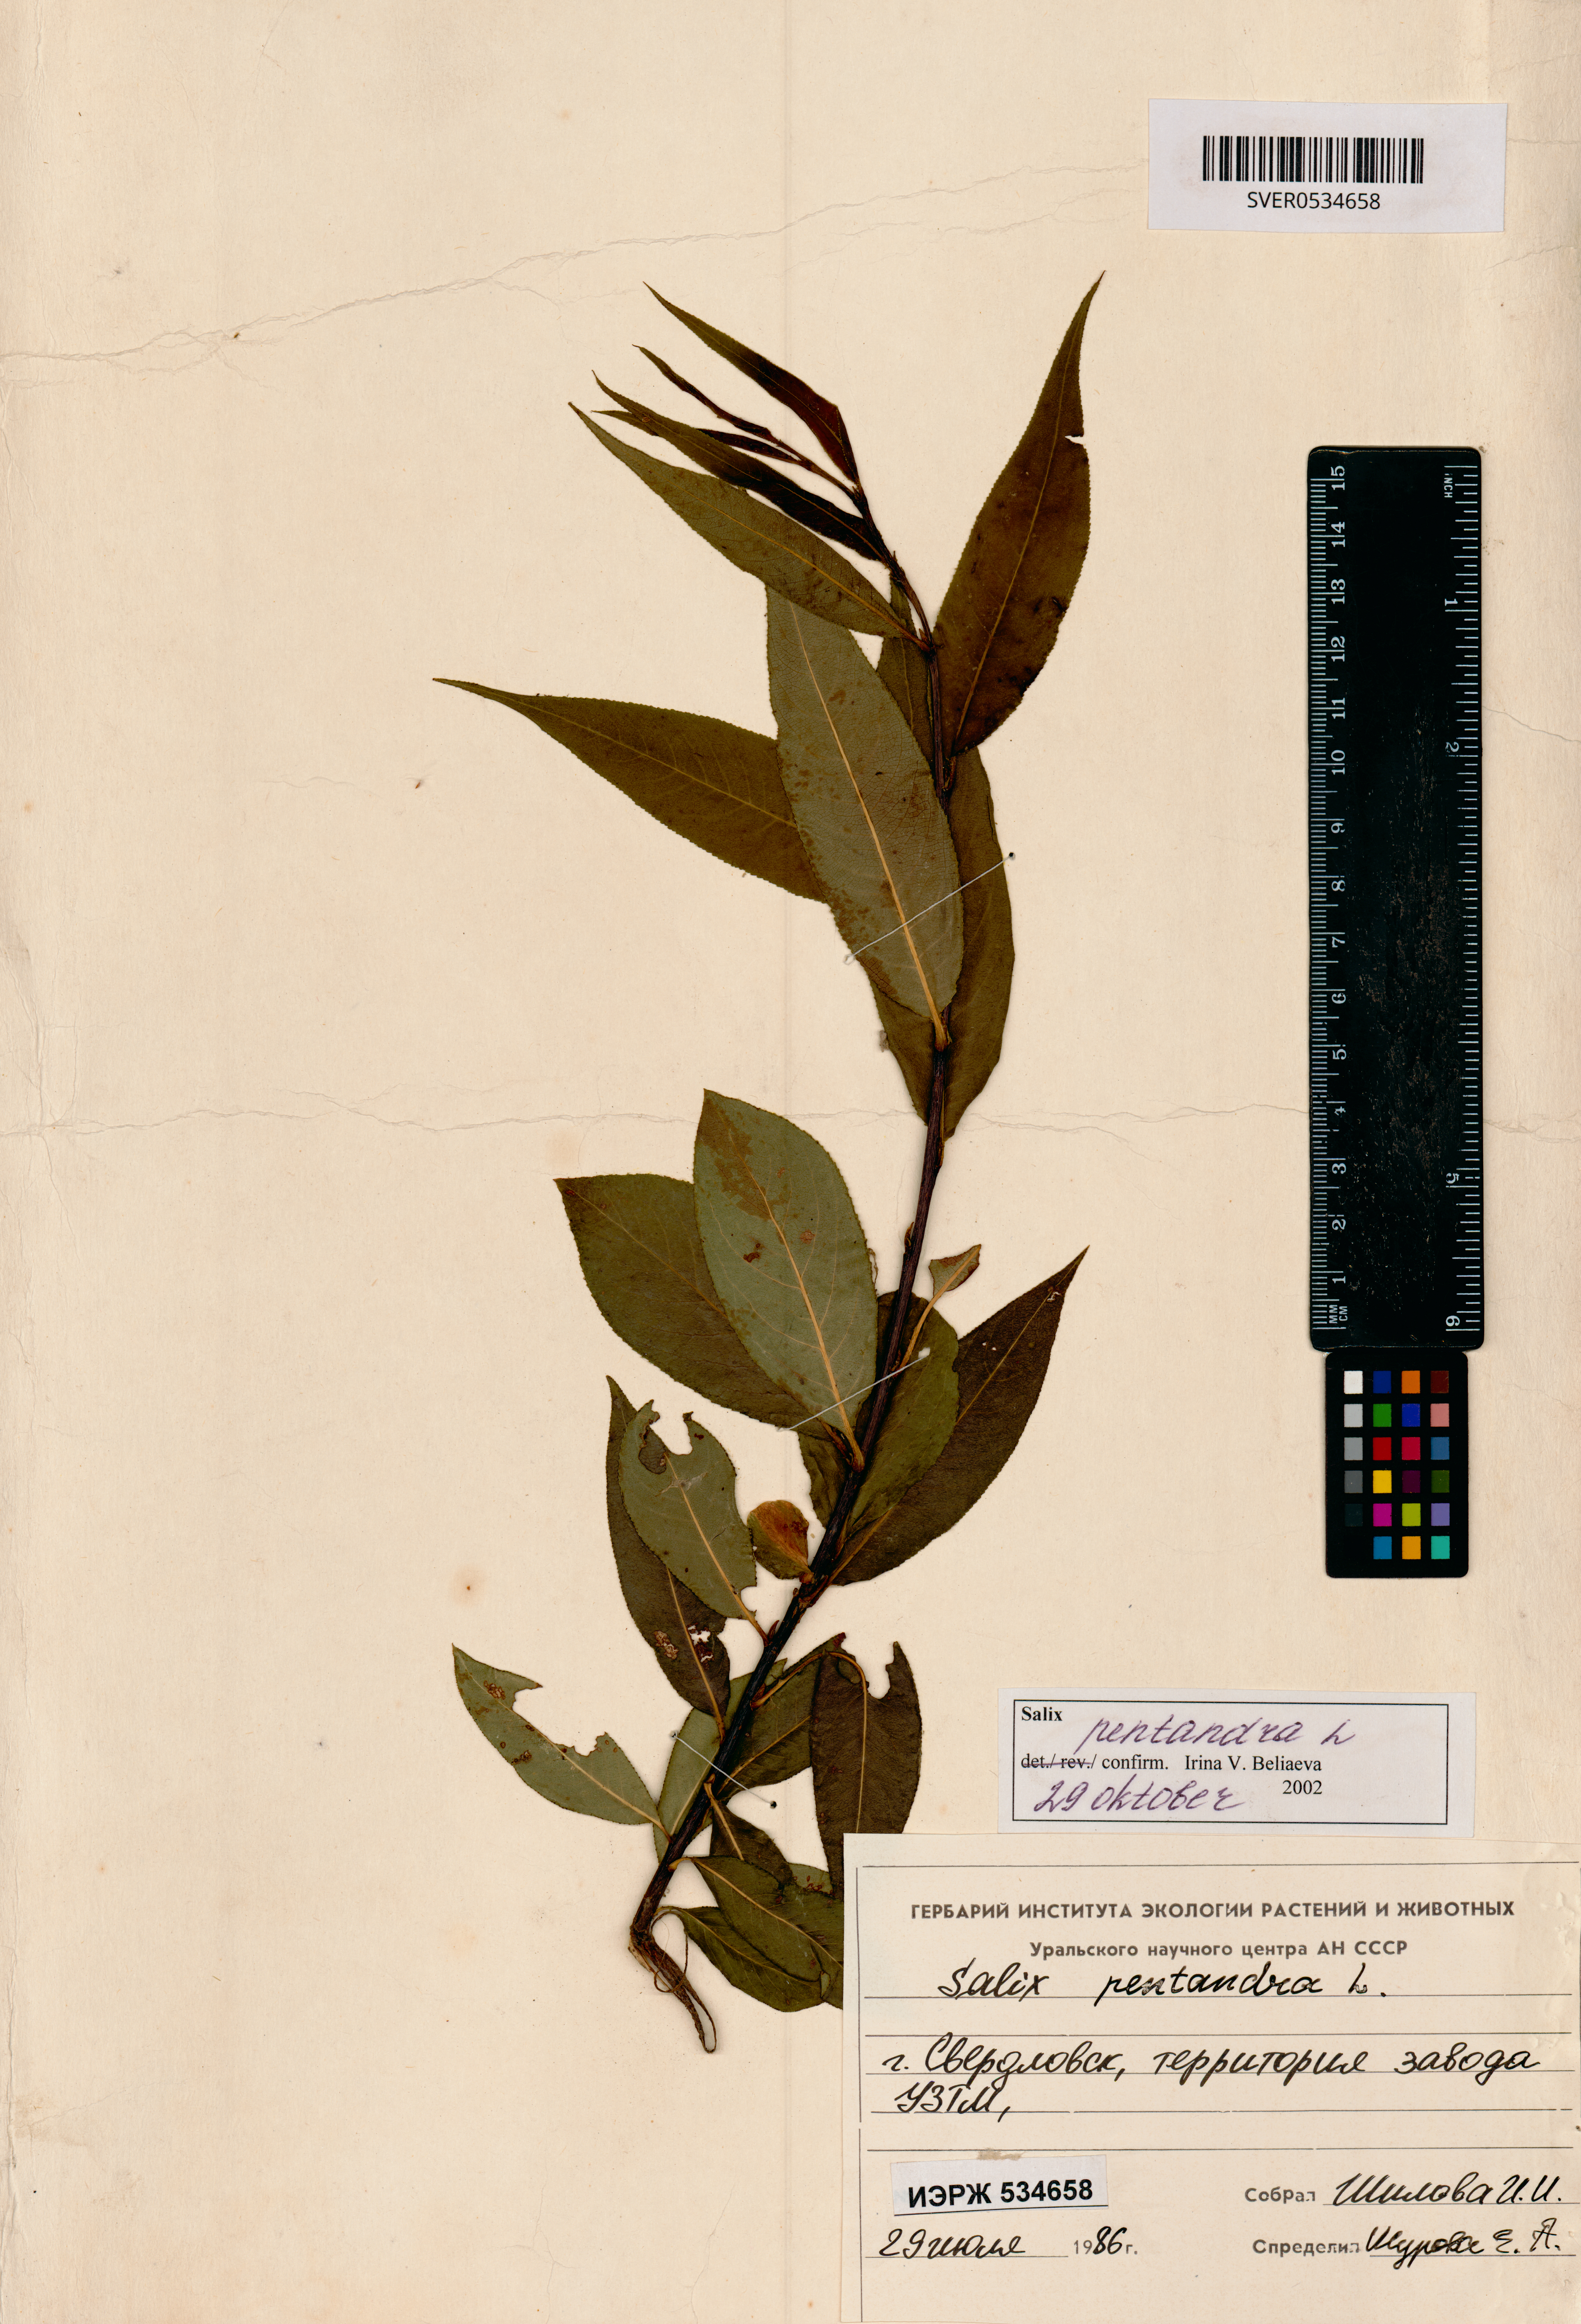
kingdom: Plantae
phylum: Tracheophyta
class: Magnoliopsida
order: Malpighiales
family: Salicaceae
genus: Salix
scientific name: Salix pentandra
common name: Bay willow
